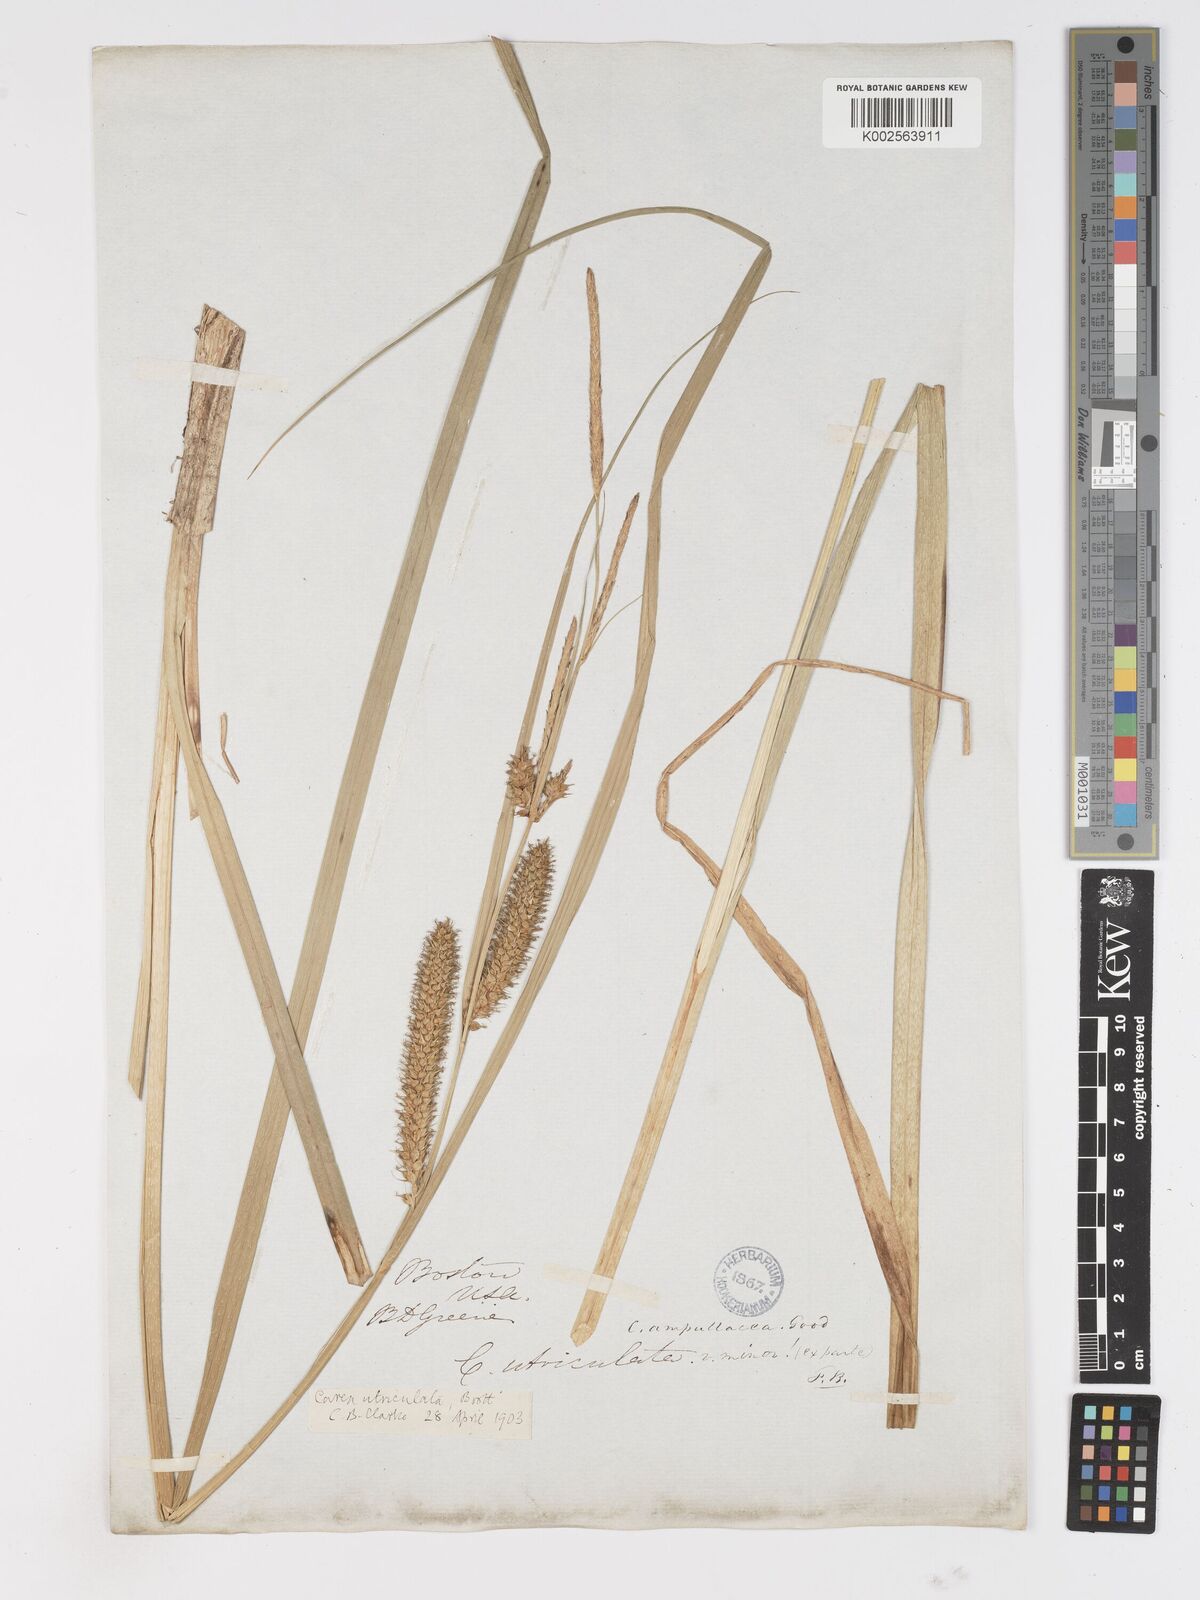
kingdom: Plantae
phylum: Tracheophyta
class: Liliopsida
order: Poales
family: Cyperaceae
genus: Carex
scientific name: Carex rostrata
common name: Bottle sedge
